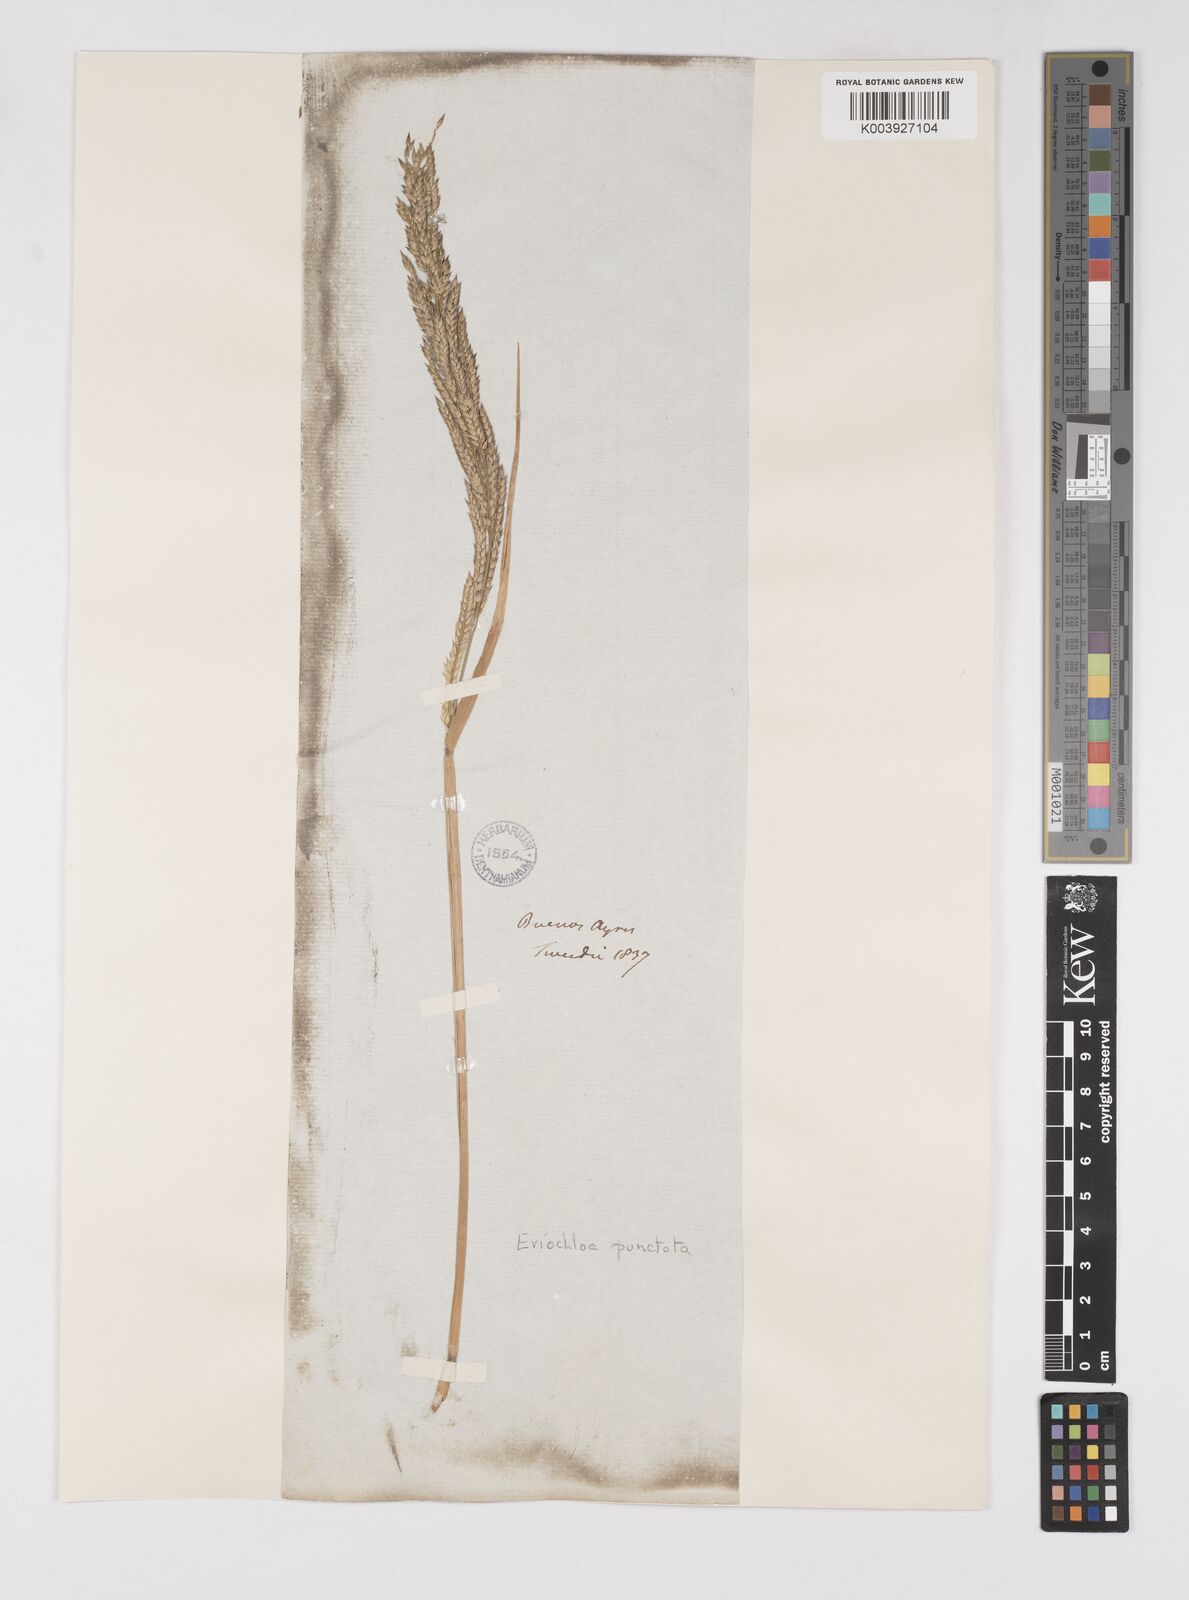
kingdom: Plantae
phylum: Tracheophyta
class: Liliopsida
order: Poales
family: Poaceae
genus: Eriochloa
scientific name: Eriochloa punctata
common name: Louisiana cupgrass
